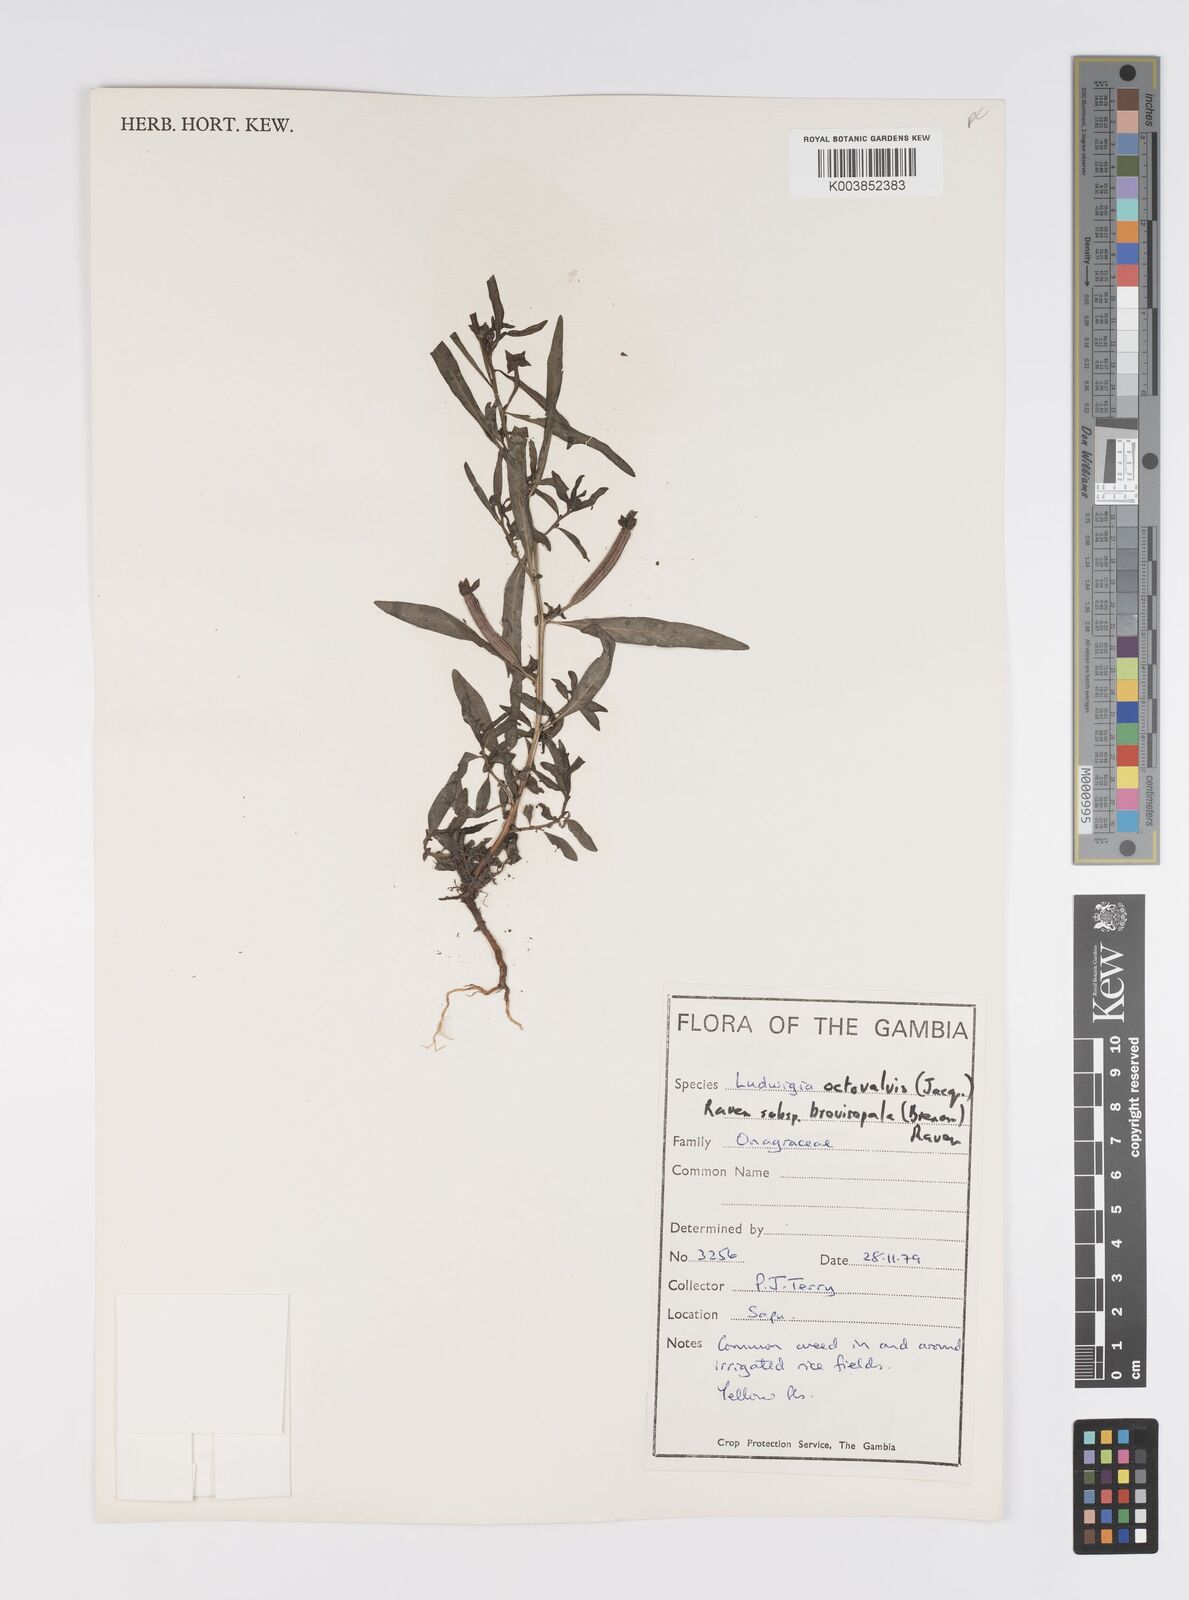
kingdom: Plantae
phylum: Tracheophyta
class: Magnoliopsida
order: Myrtales
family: Onagraceae
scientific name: Onagraceae
